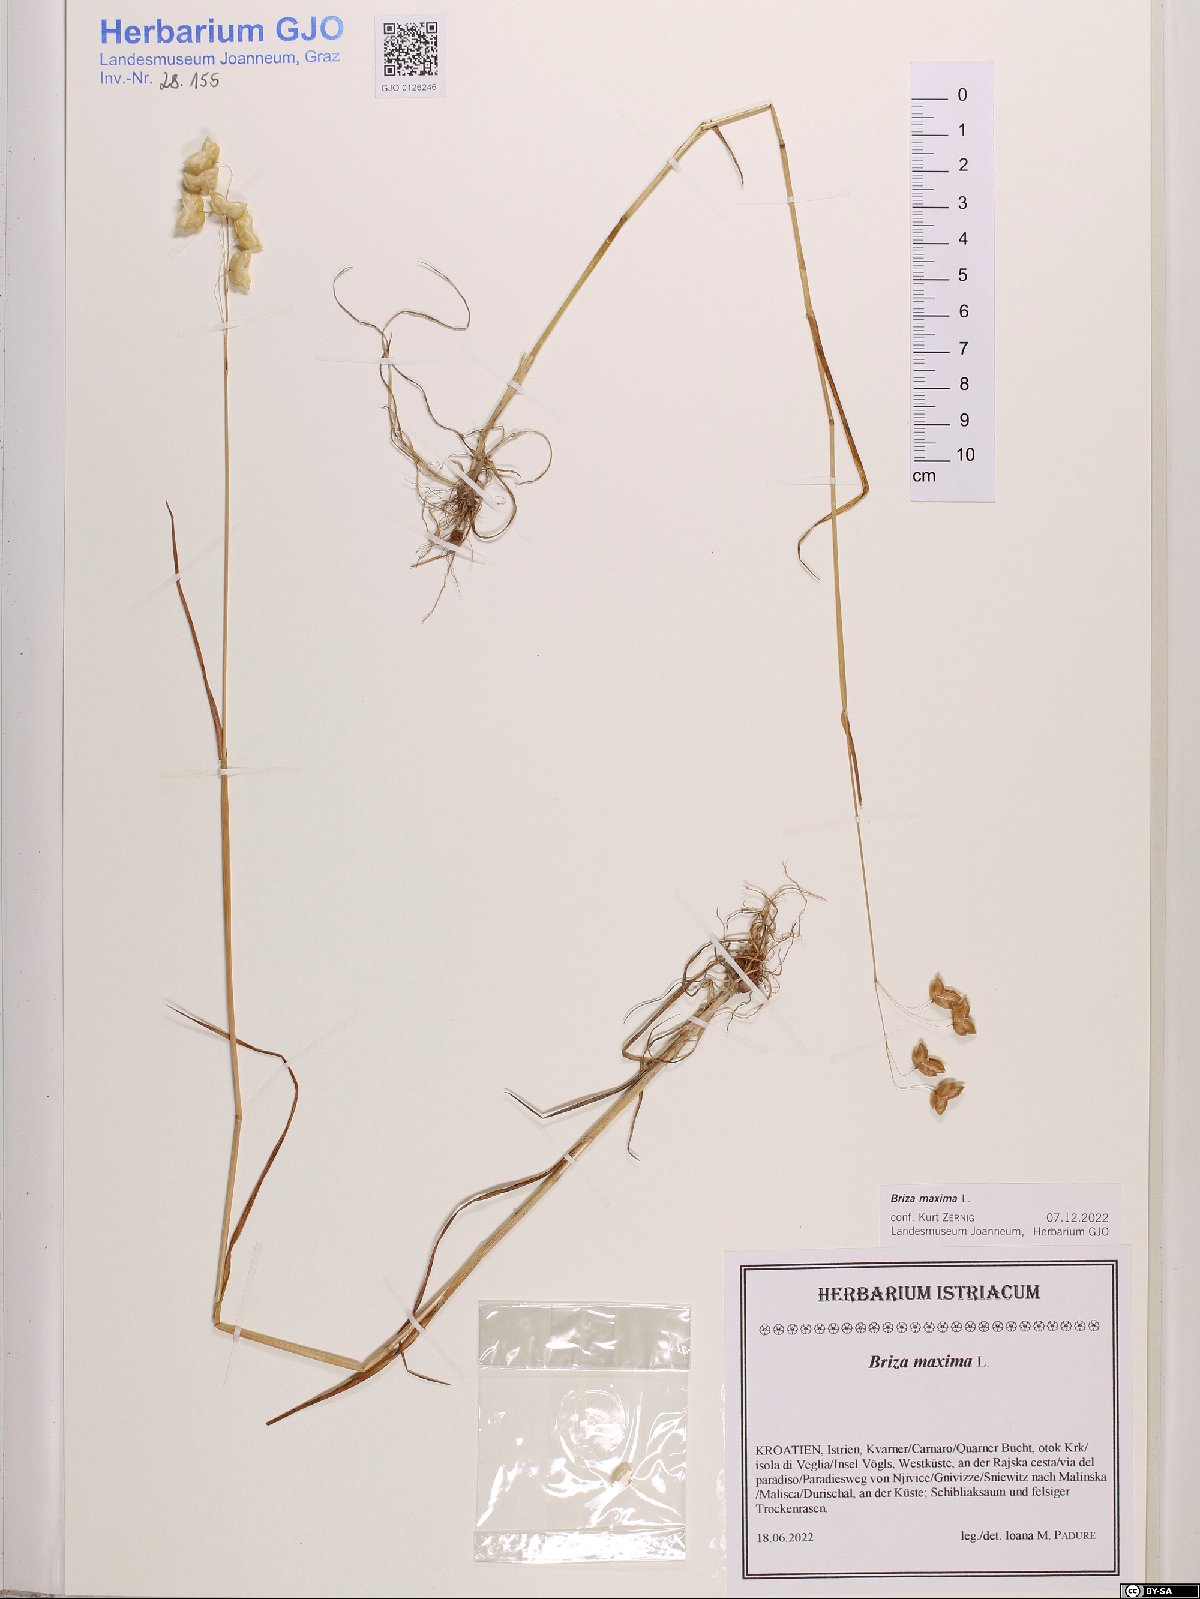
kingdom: Plantae
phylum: Tracheophyta
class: Liliopsida
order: Poales
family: Poaceae
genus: Briza
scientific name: Briza maxima
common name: Big quakinggrass
